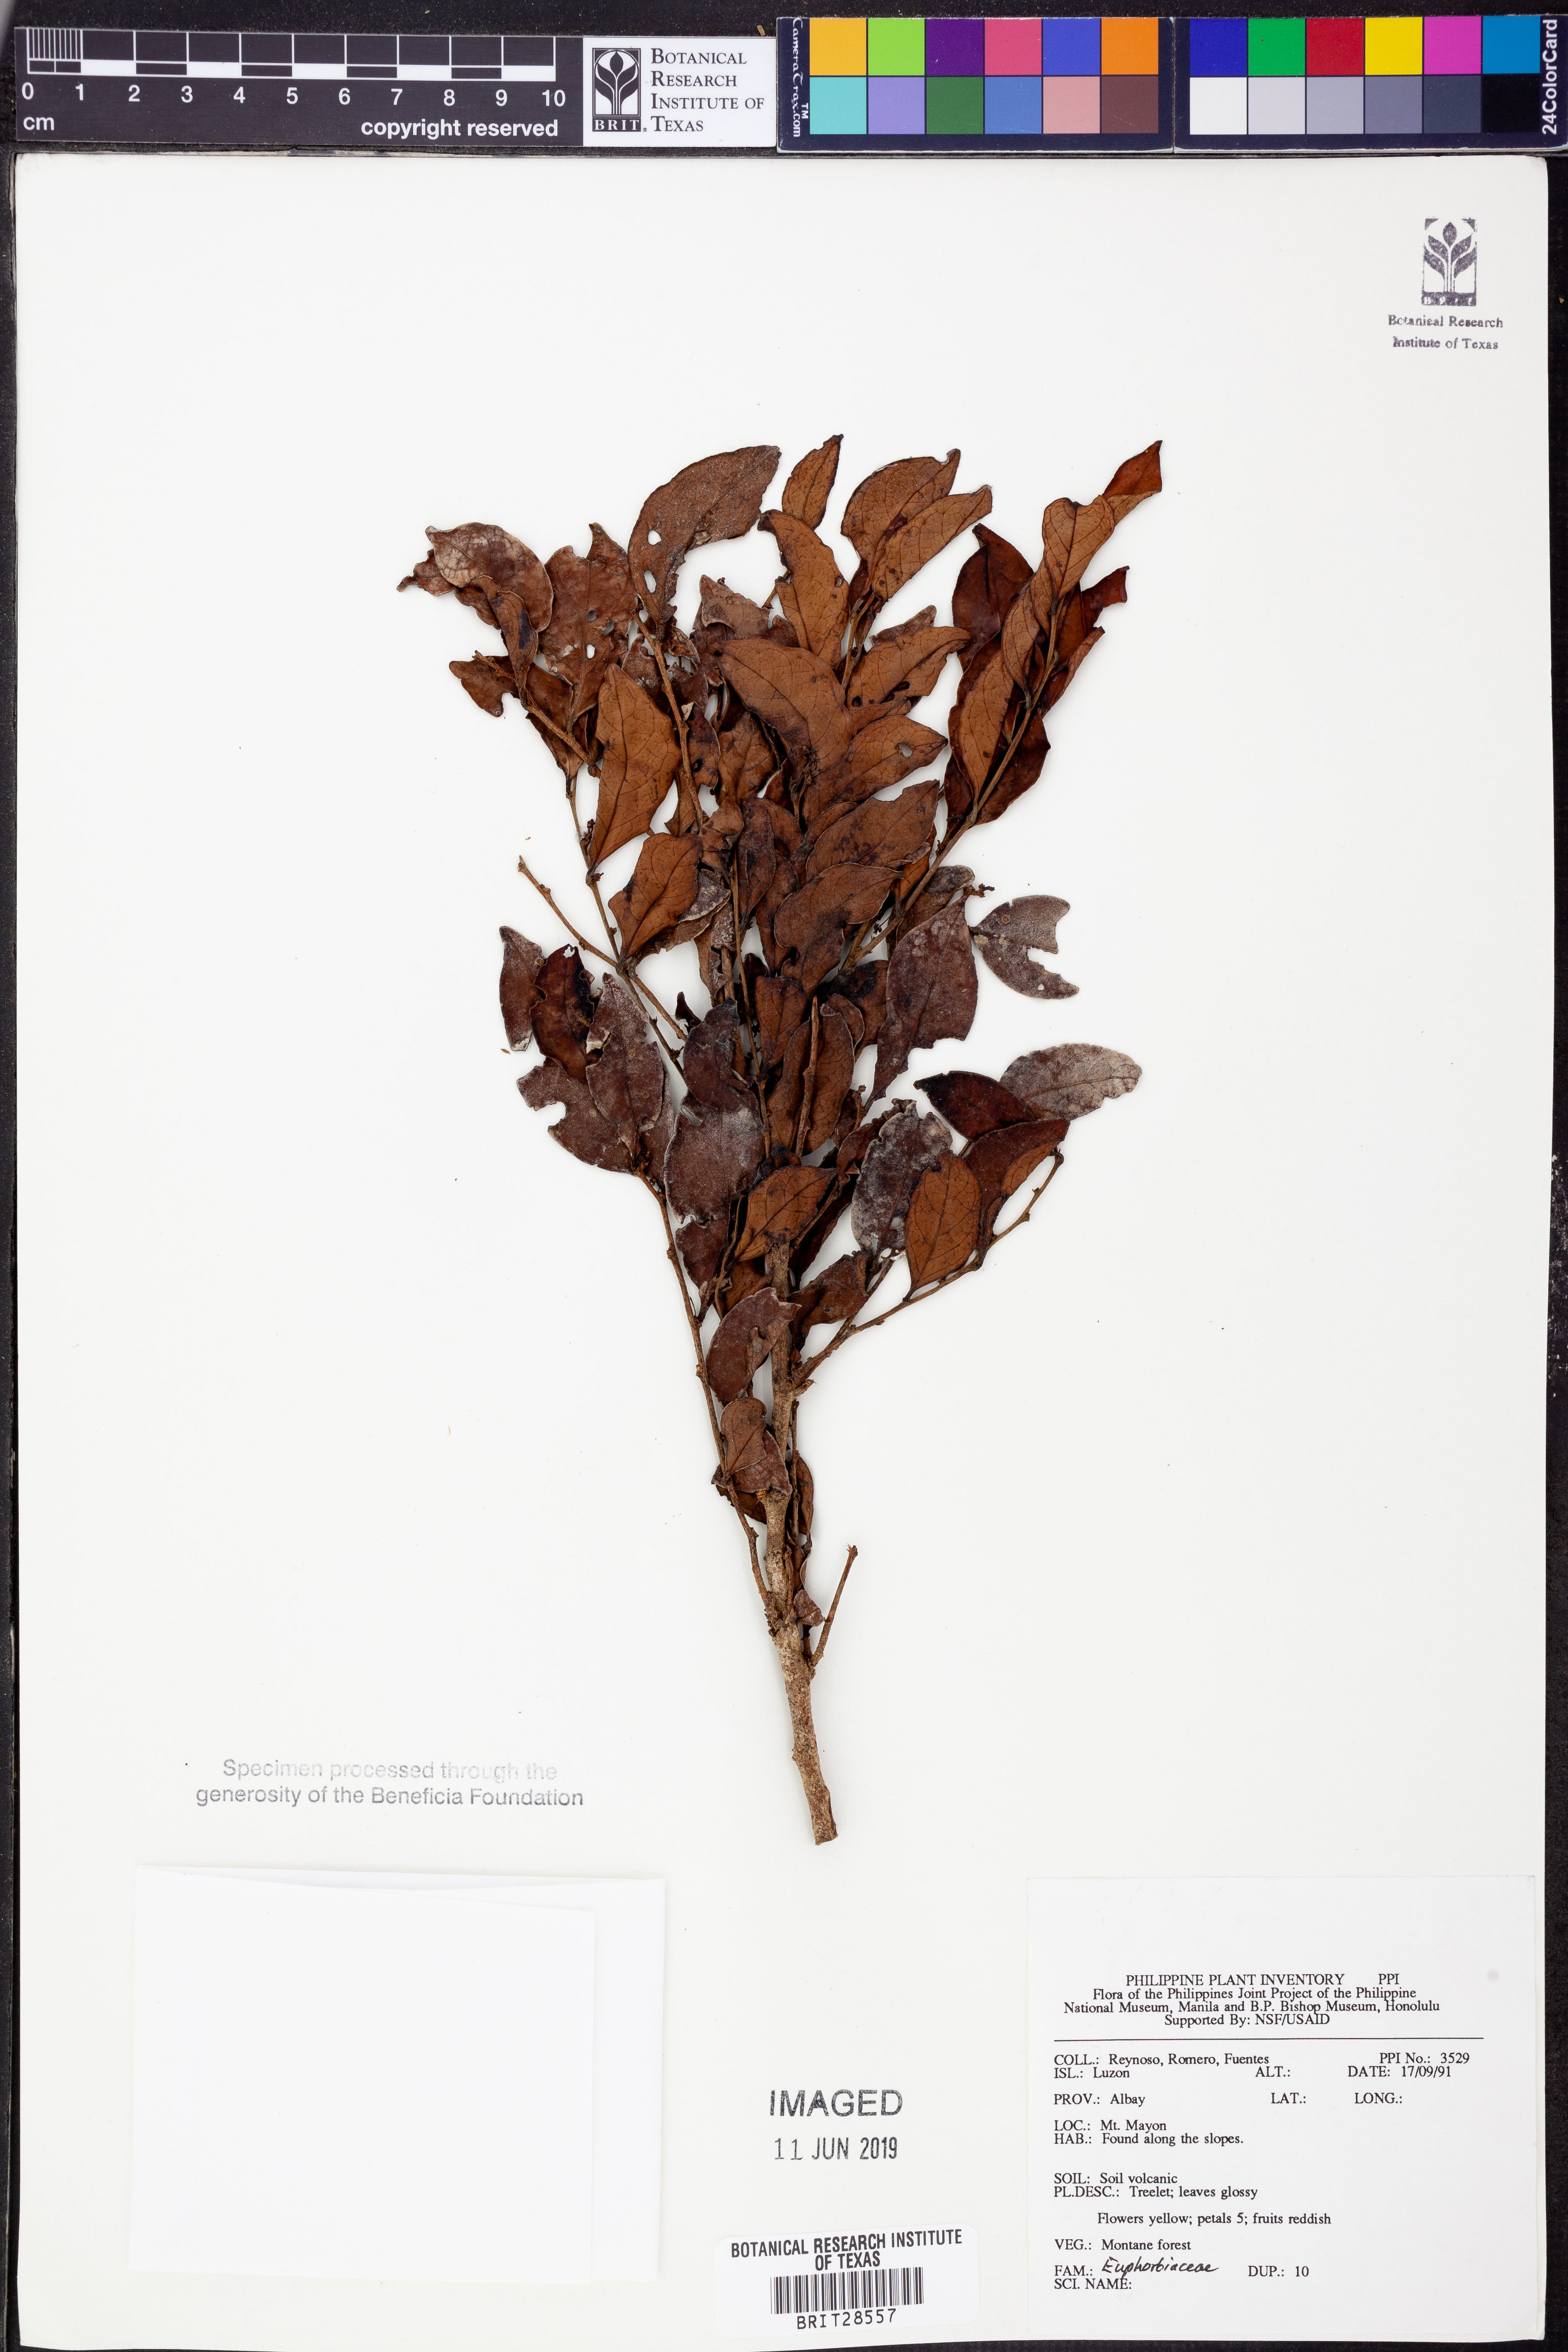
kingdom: Plantae
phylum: Tracheophyta
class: Magnoliopsida
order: Malpighiales
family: Euphorbiaceae
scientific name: Euphorbiaceae
